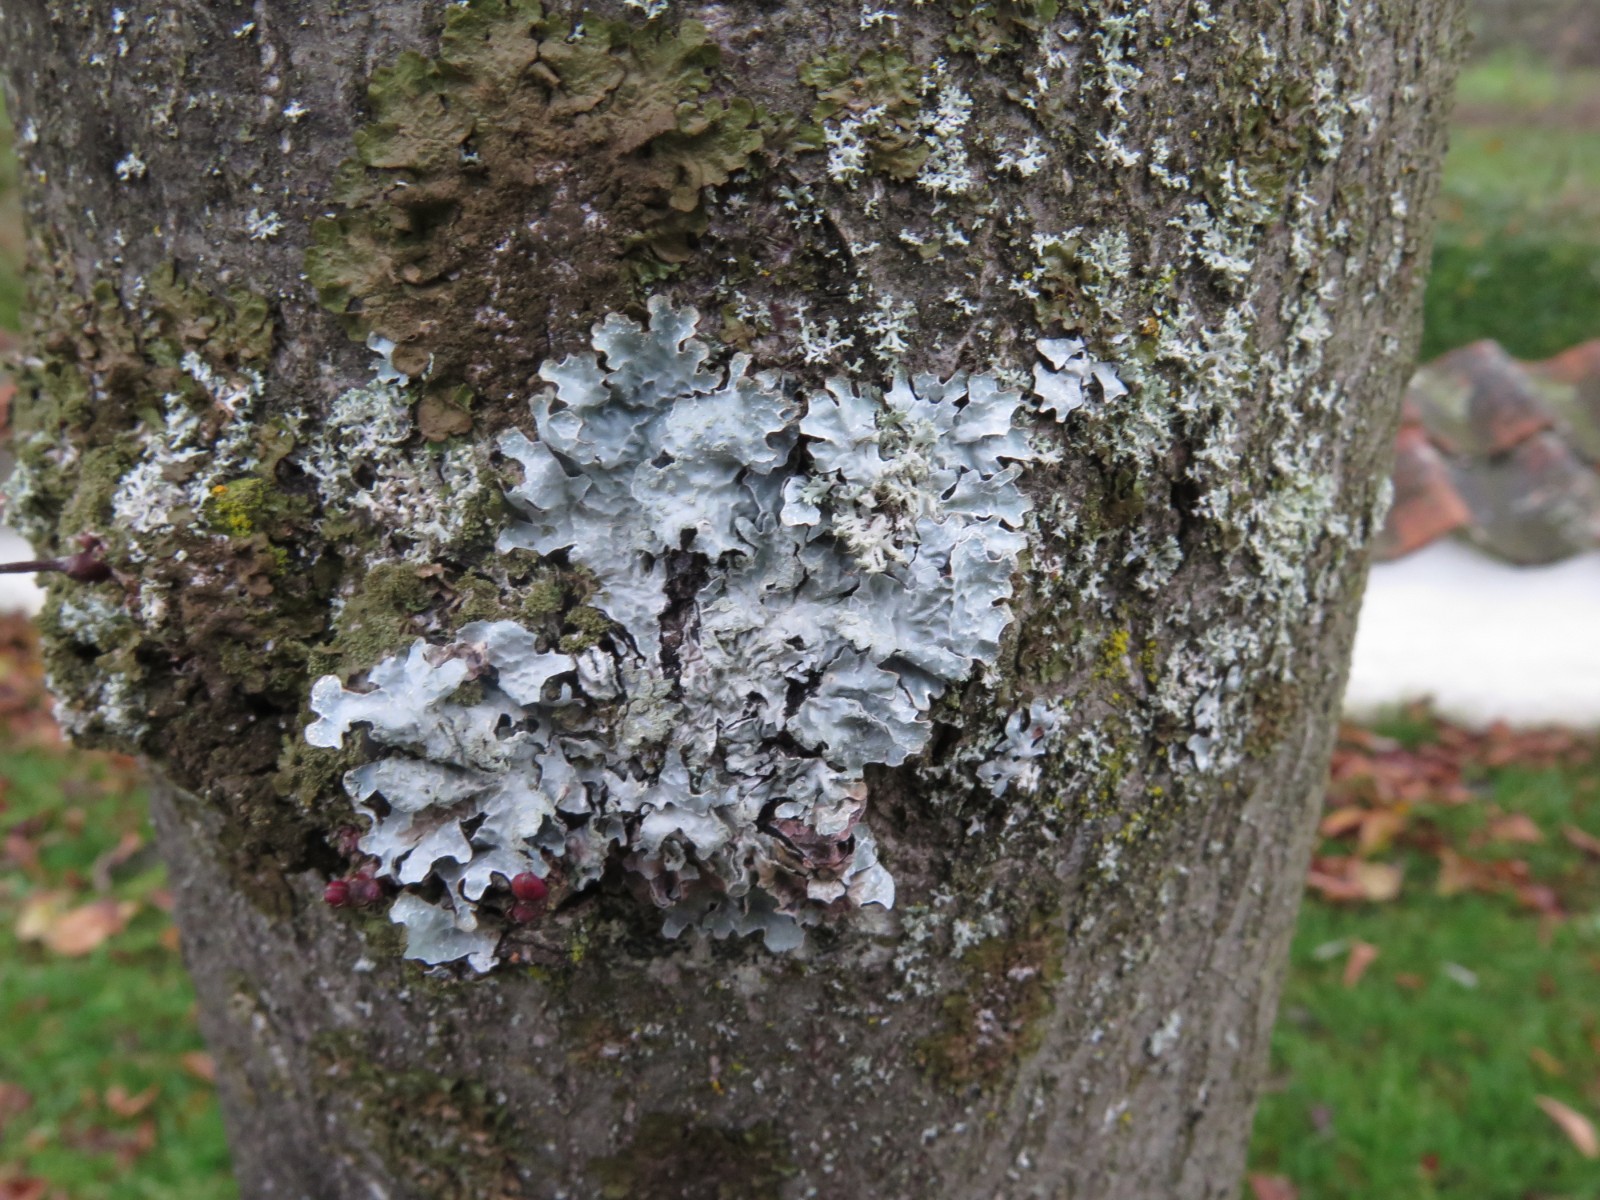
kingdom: Fungi
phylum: Ascomycota
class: Lecanoromycetes
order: Lecanorales
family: Parmeliaceae
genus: Parmelia
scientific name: Parmelia sulcata
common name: rynket skållav
